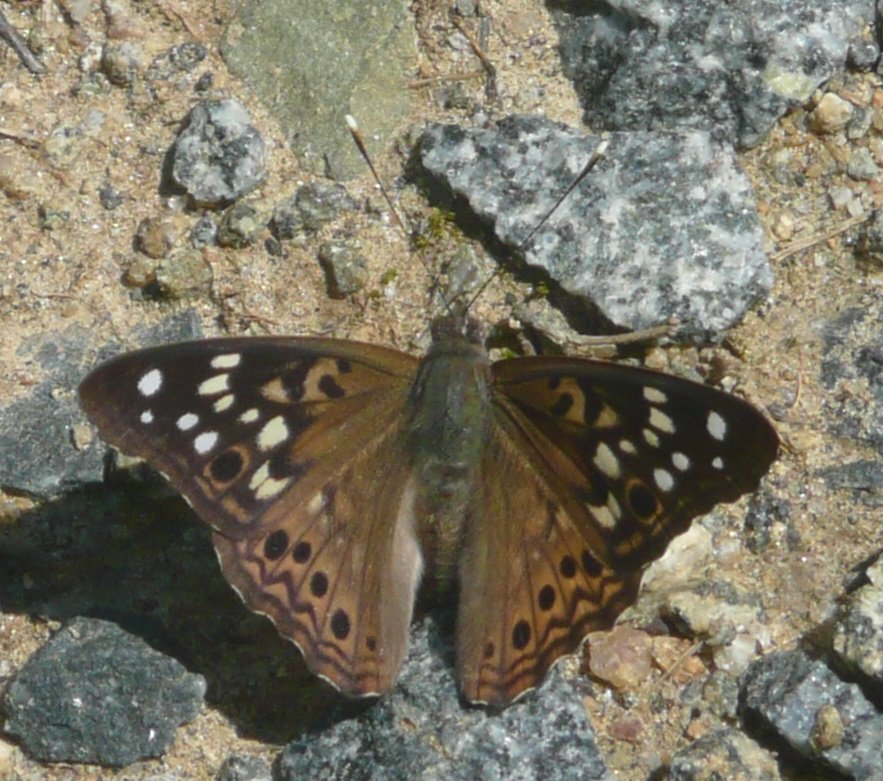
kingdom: Animalia
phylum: Arthropoda
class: Insecta
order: Lepidoptera
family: Nymphalidae
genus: Asterocampa
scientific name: Asterocampa celtis
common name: Hackberry Emperor
